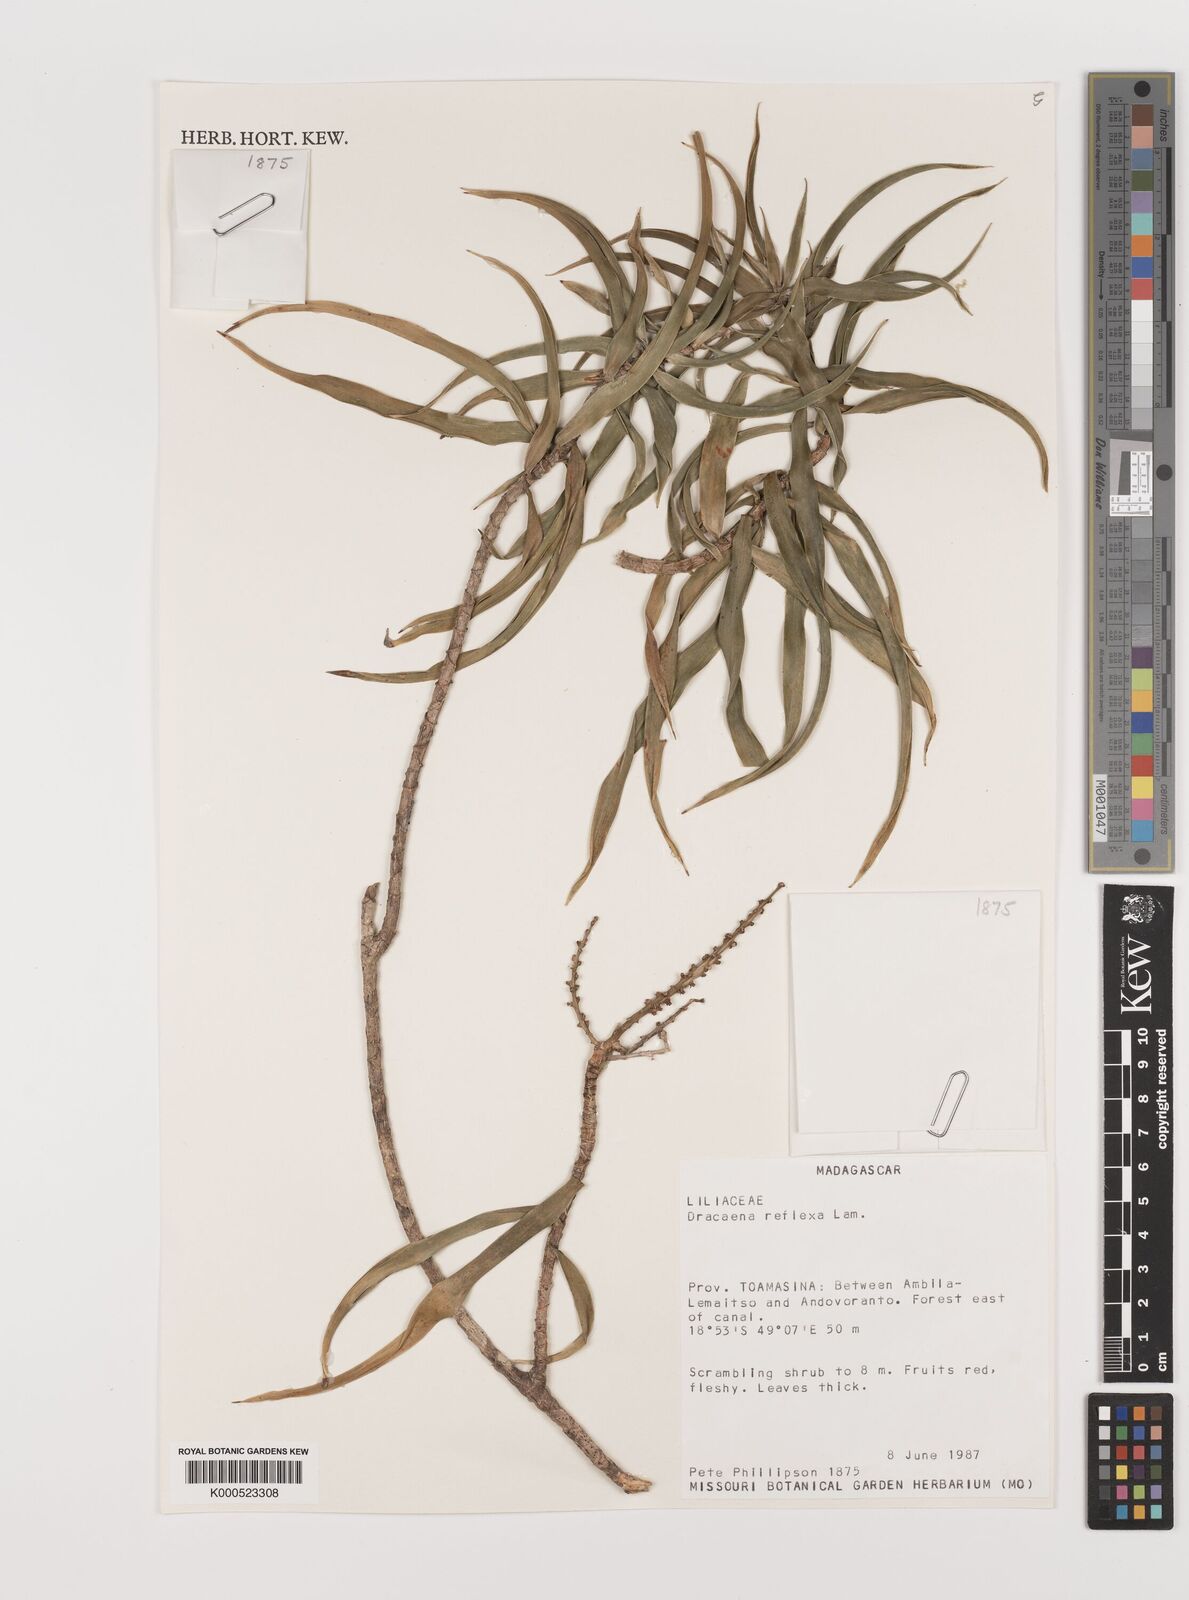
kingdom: Plantae
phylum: Tracheophyta
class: Liliopsida
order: Asparagales
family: Asparagaceae
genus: Dracaena
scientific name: Dracaena reflexa
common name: Song-of-india
